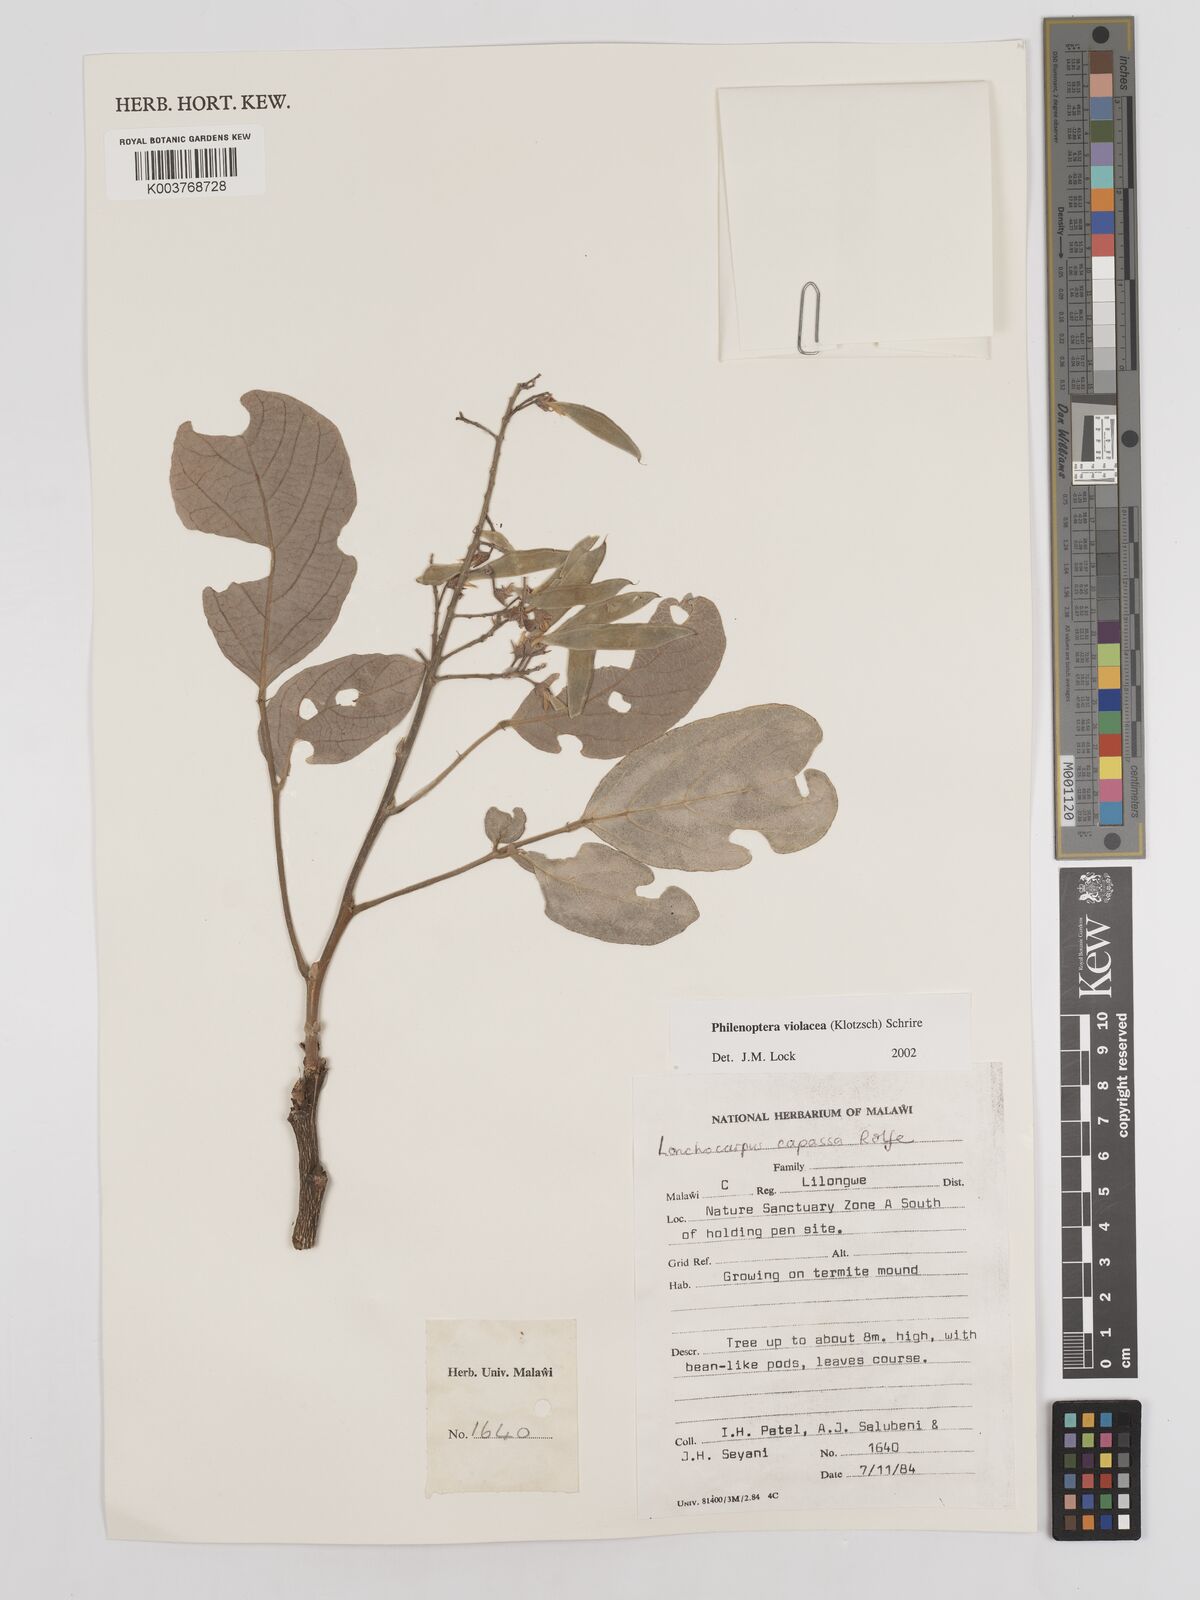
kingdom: Plantae
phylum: Tracheophyta
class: Magnoliopsida
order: Fabales
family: Fabaceae
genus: Philenoptera
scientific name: Philenoptera violacea
